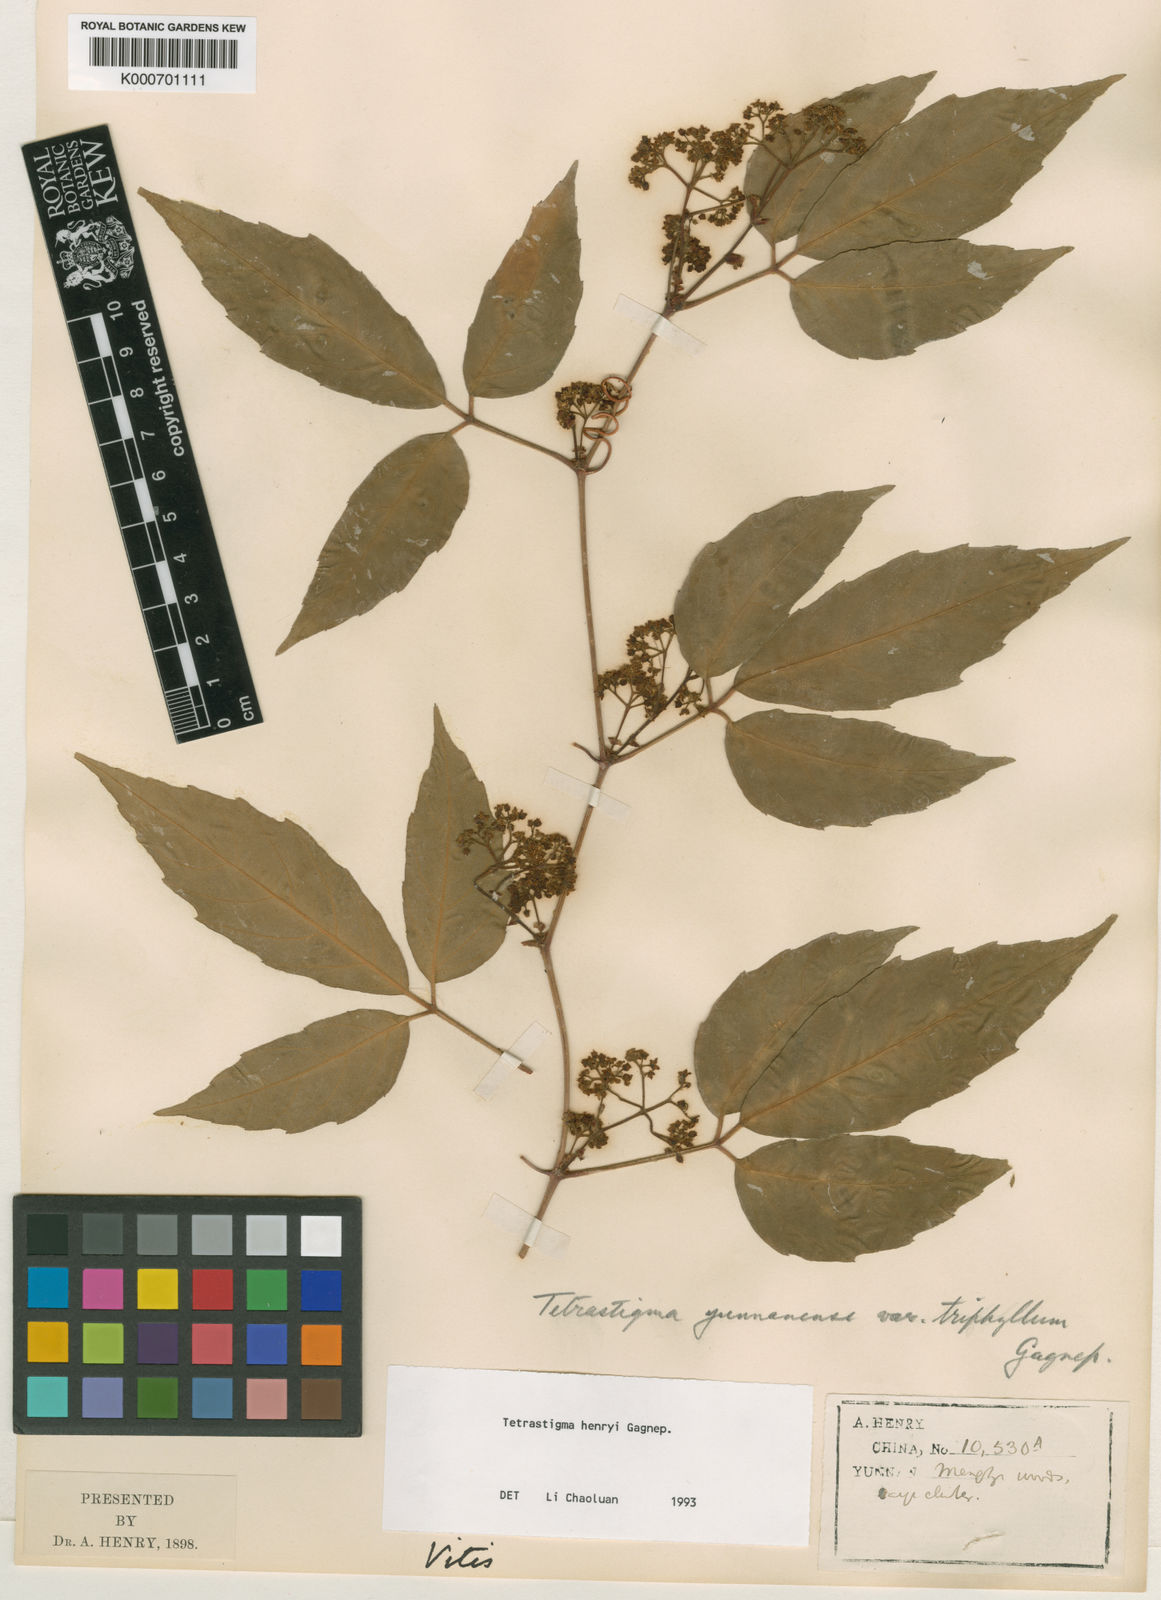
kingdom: Plantae
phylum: Tracheophyta
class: Magnoliopsida
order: Vitales
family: Vitaceae
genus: Tetrastigma
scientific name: Tetrastigma dubium
